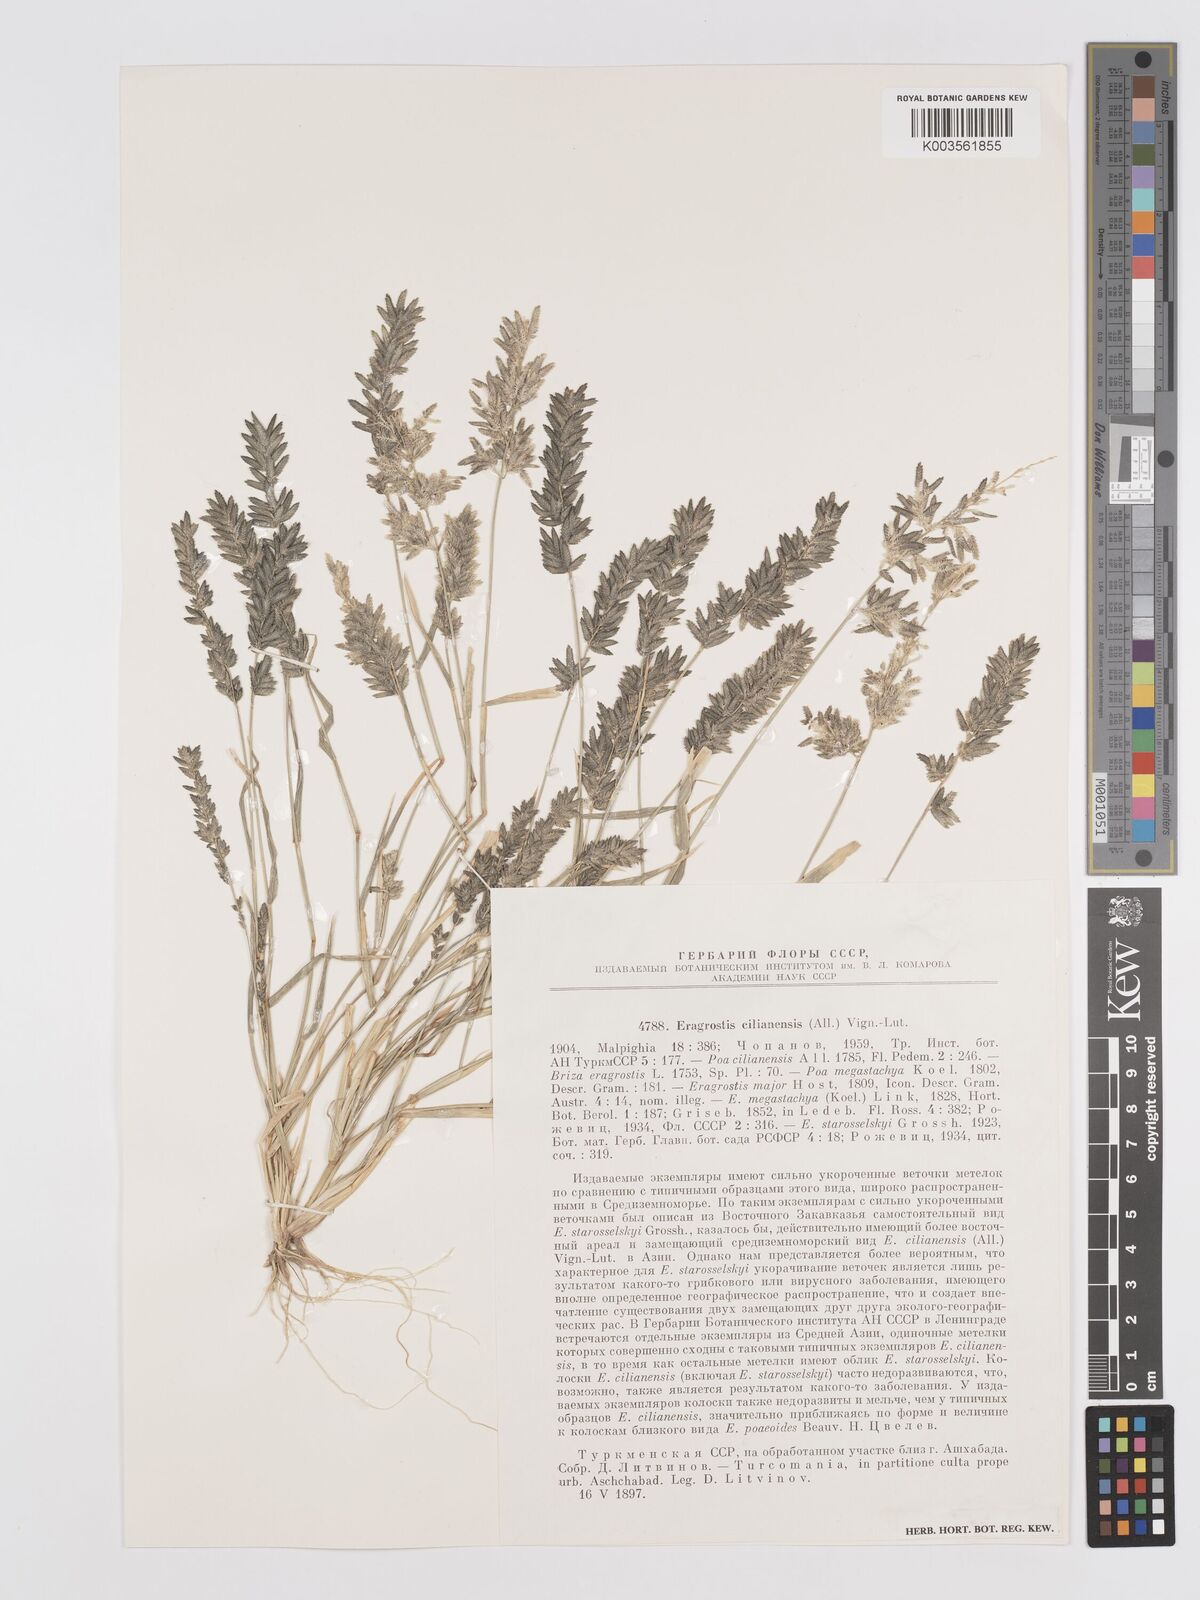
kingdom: Plantae
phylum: Tracheophyta
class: Liliopsida
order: Poales
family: Poaceae
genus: Eragrostis
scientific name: Eragrostis cilianensis
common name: Stinkgrass
